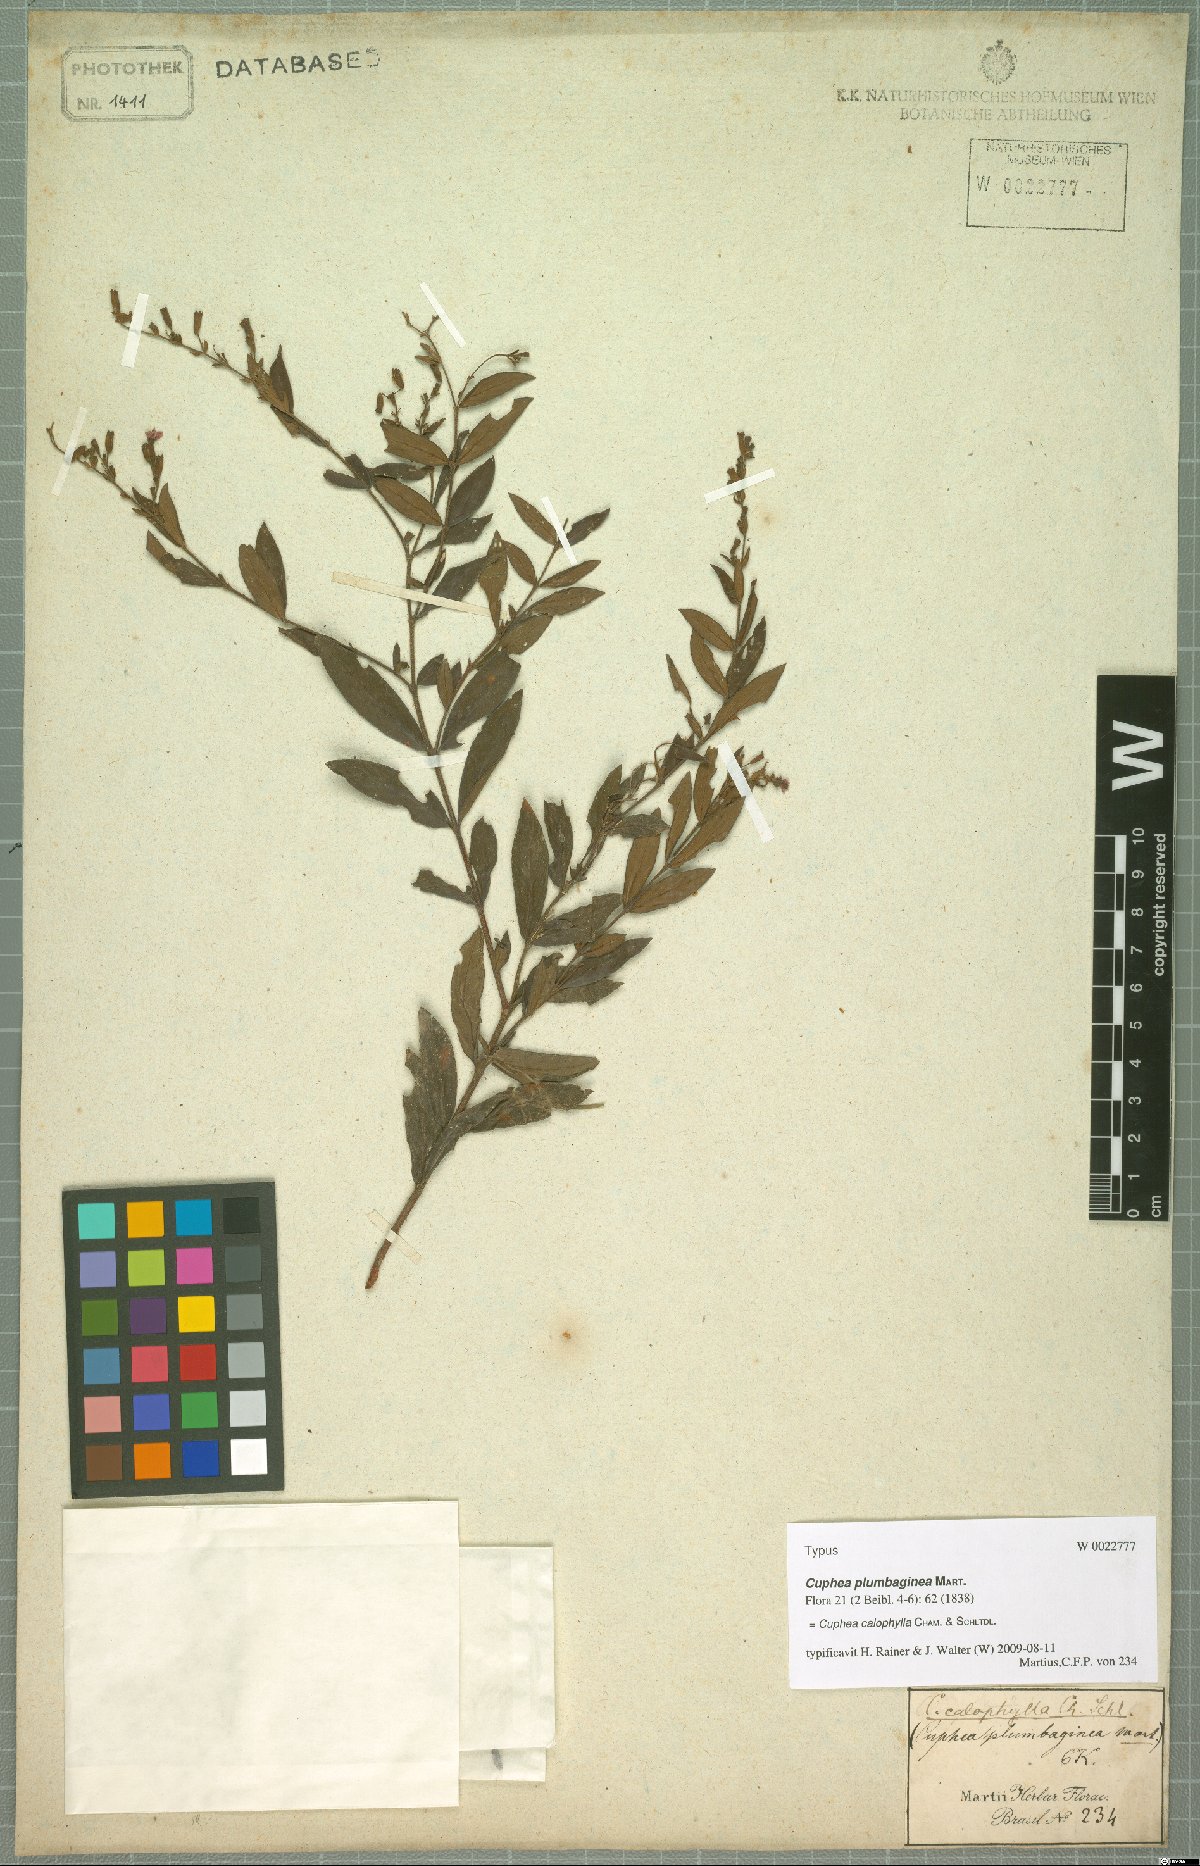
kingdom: Plantae
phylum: Tracheophyta
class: Magnoliopsida
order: Myrtales
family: Lythraceae
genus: Cuphea
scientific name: Cuphea calophylla
